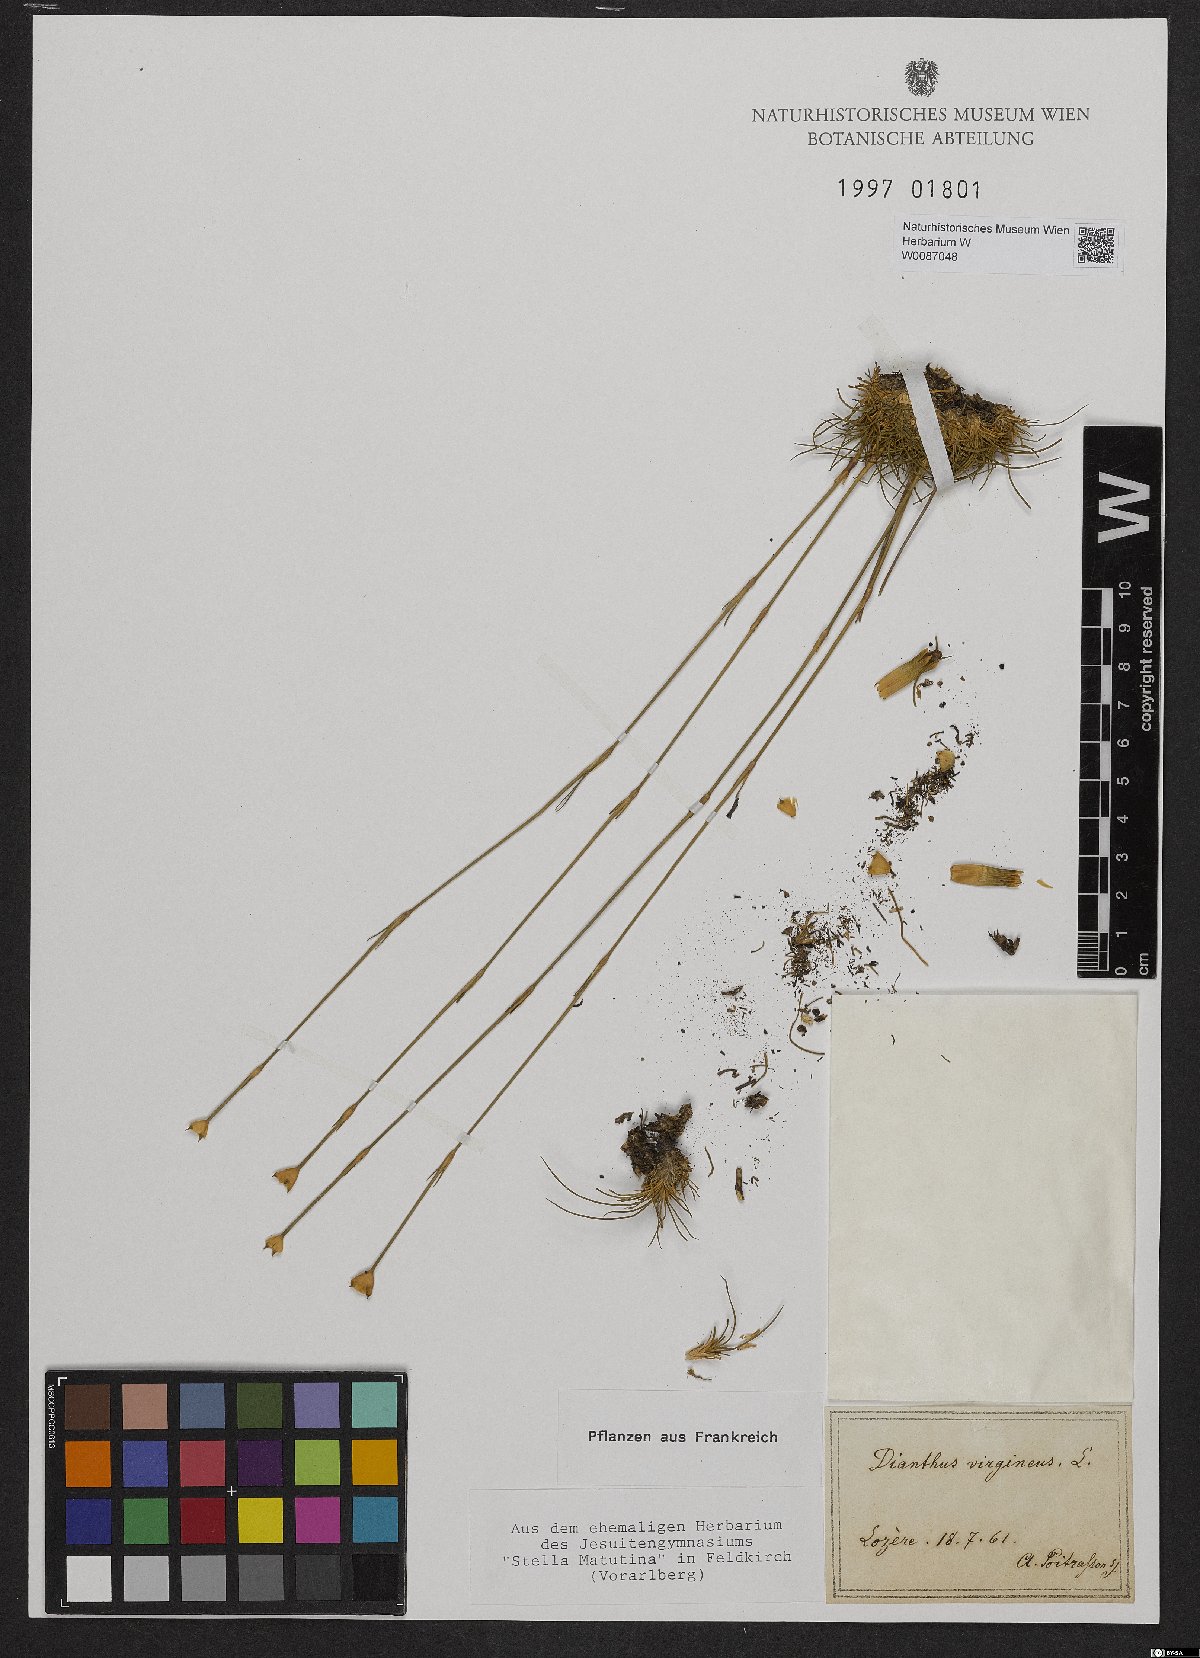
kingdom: Plantae
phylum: Tracheophyta
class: Magnoliopsida
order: Caryophyllales
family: Caryophyllaceae
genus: Dianthus
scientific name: Dianthus virgineus
